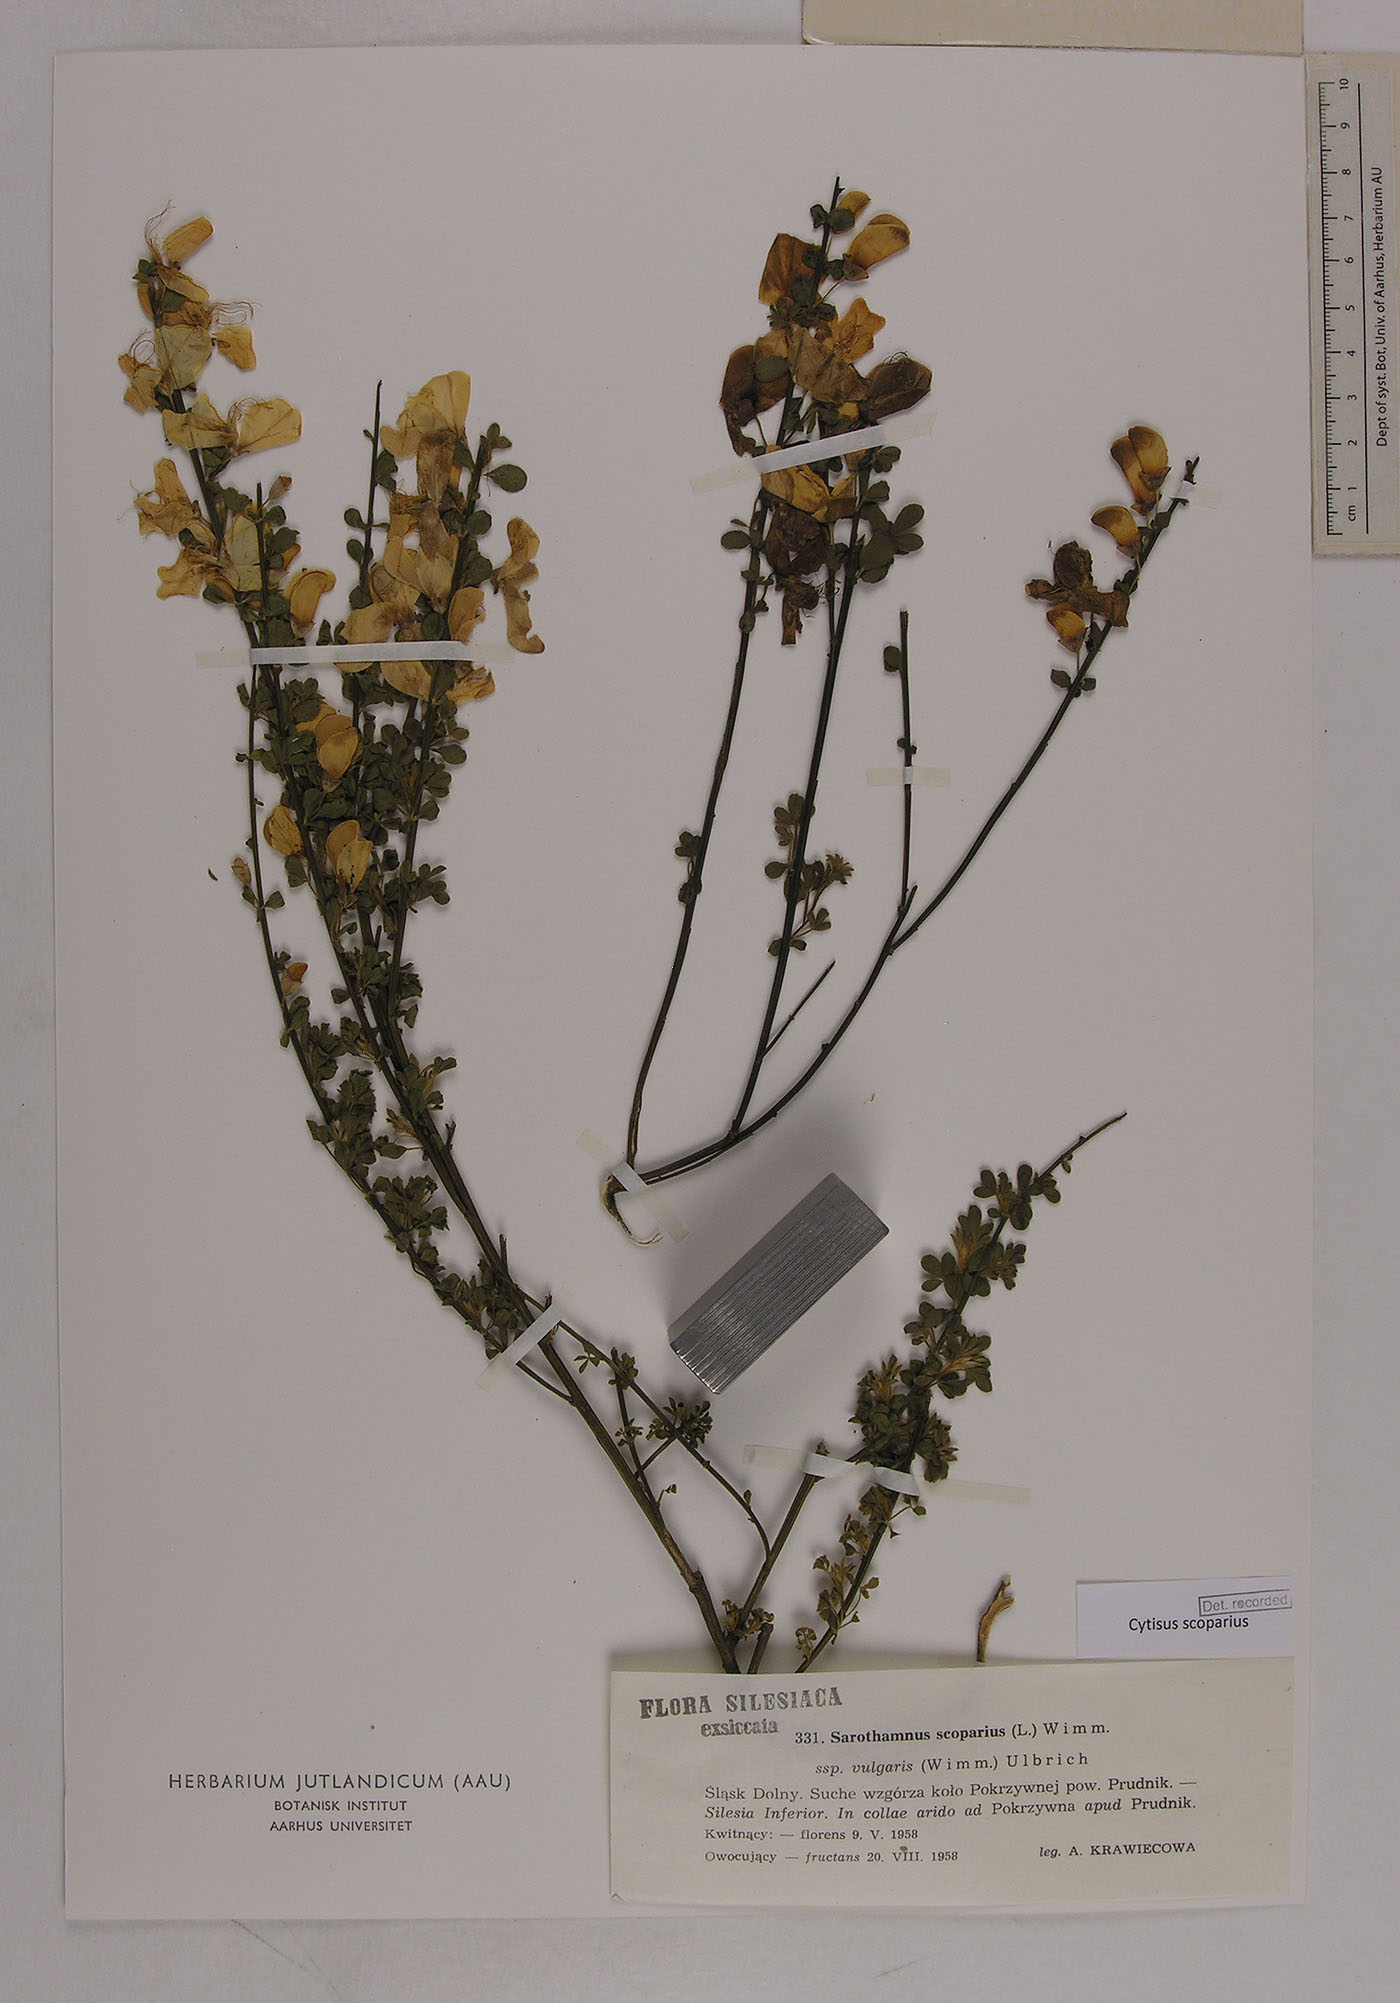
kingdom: Plantae
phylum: Tracheophyta
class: Magnoliopsida
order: Fabales
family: Fabaceae
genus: Cytisus
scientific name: Cytisus scoparius
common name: Scotch broom
